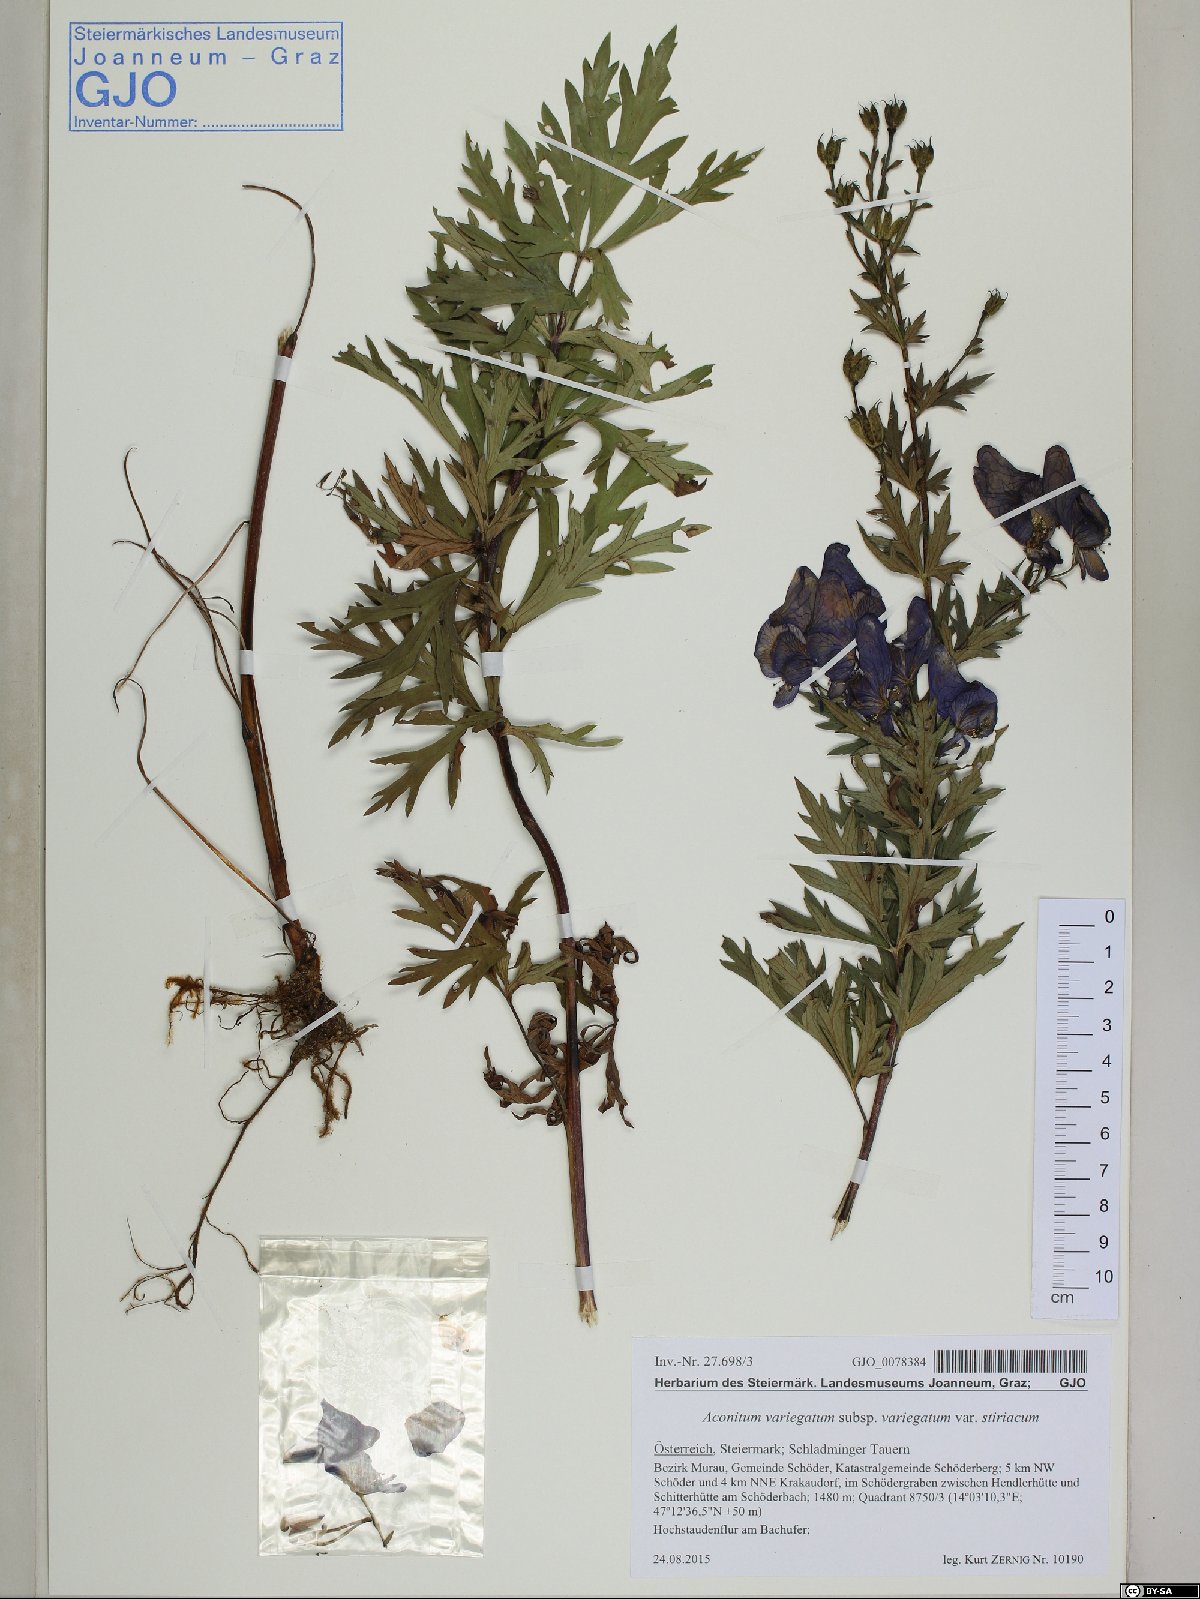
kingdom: Plantae
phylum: Tracheophyta
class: Magnoliopsida
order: Ranunculales
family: Ranunculaceae
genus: Aconitum
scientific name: Aconitum variegatum
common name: Manchurian monkshood
